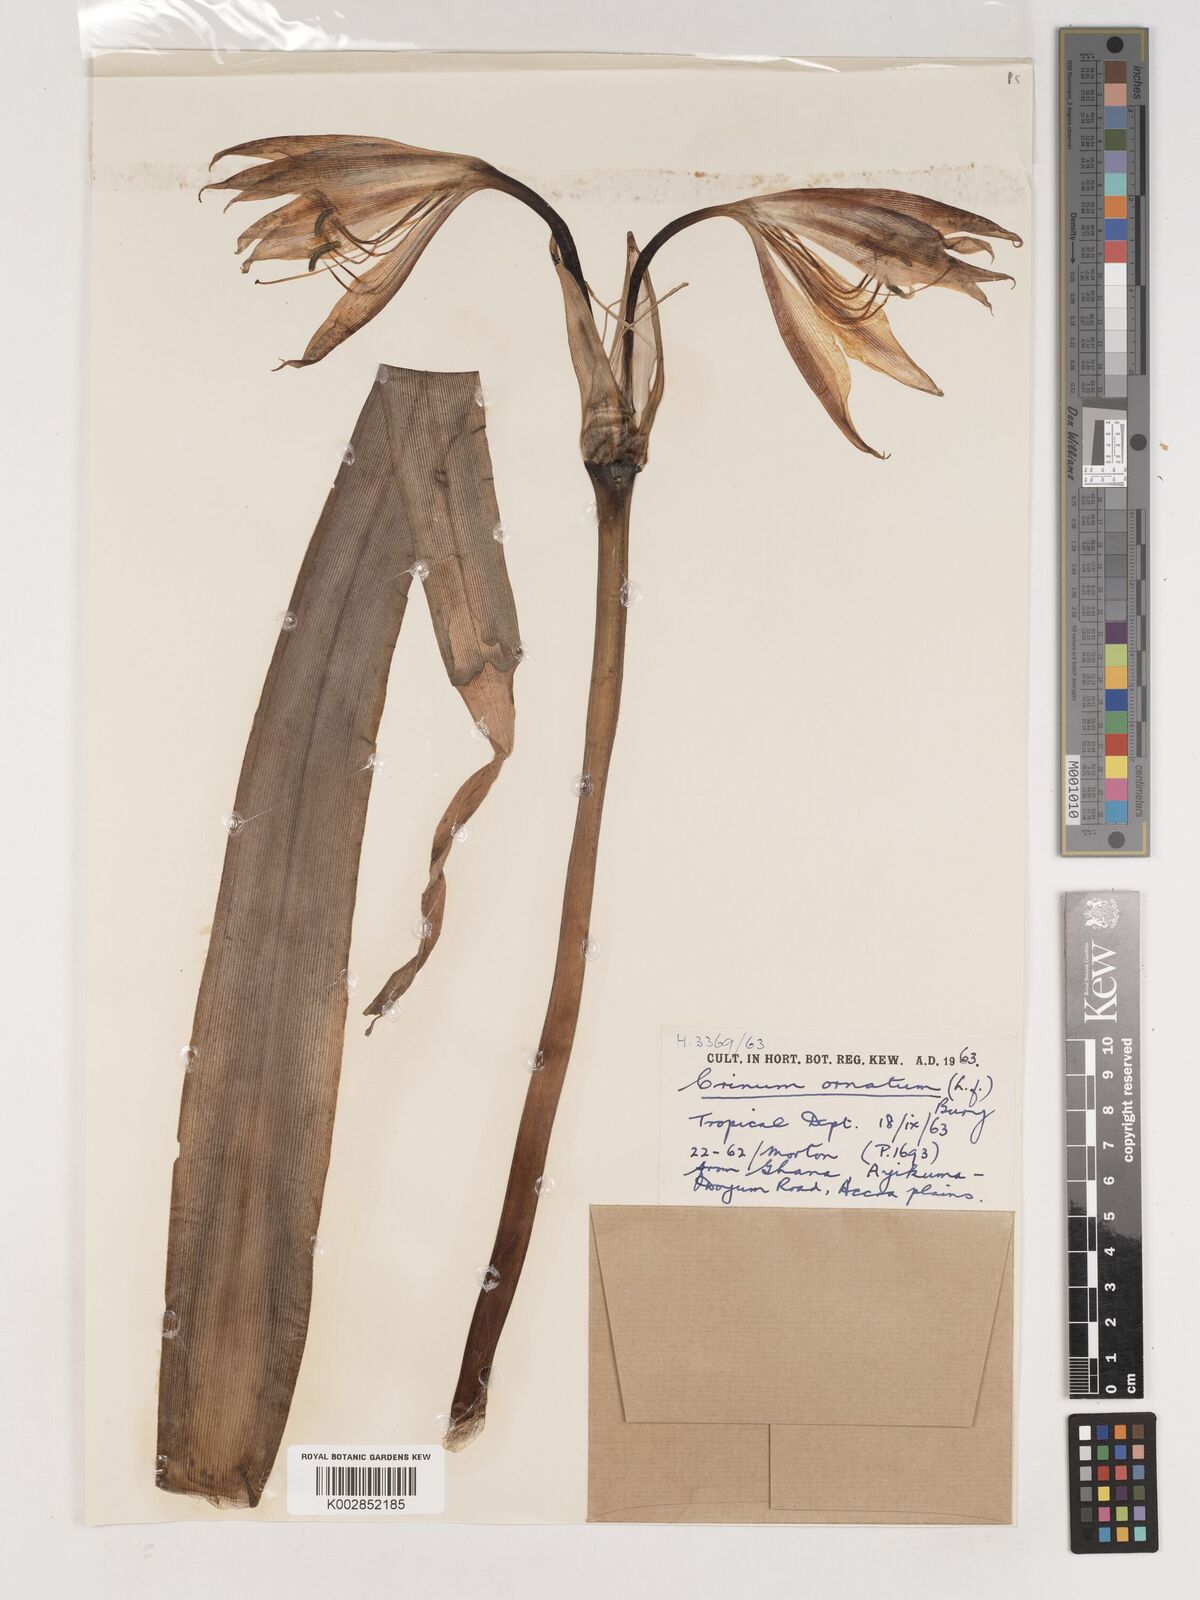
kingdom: Plantae
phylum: Tracheophyta
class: Liliopsida
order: Asparagales
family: Amaryllidaceae
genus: Crinum
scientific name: Crinum ornatum
